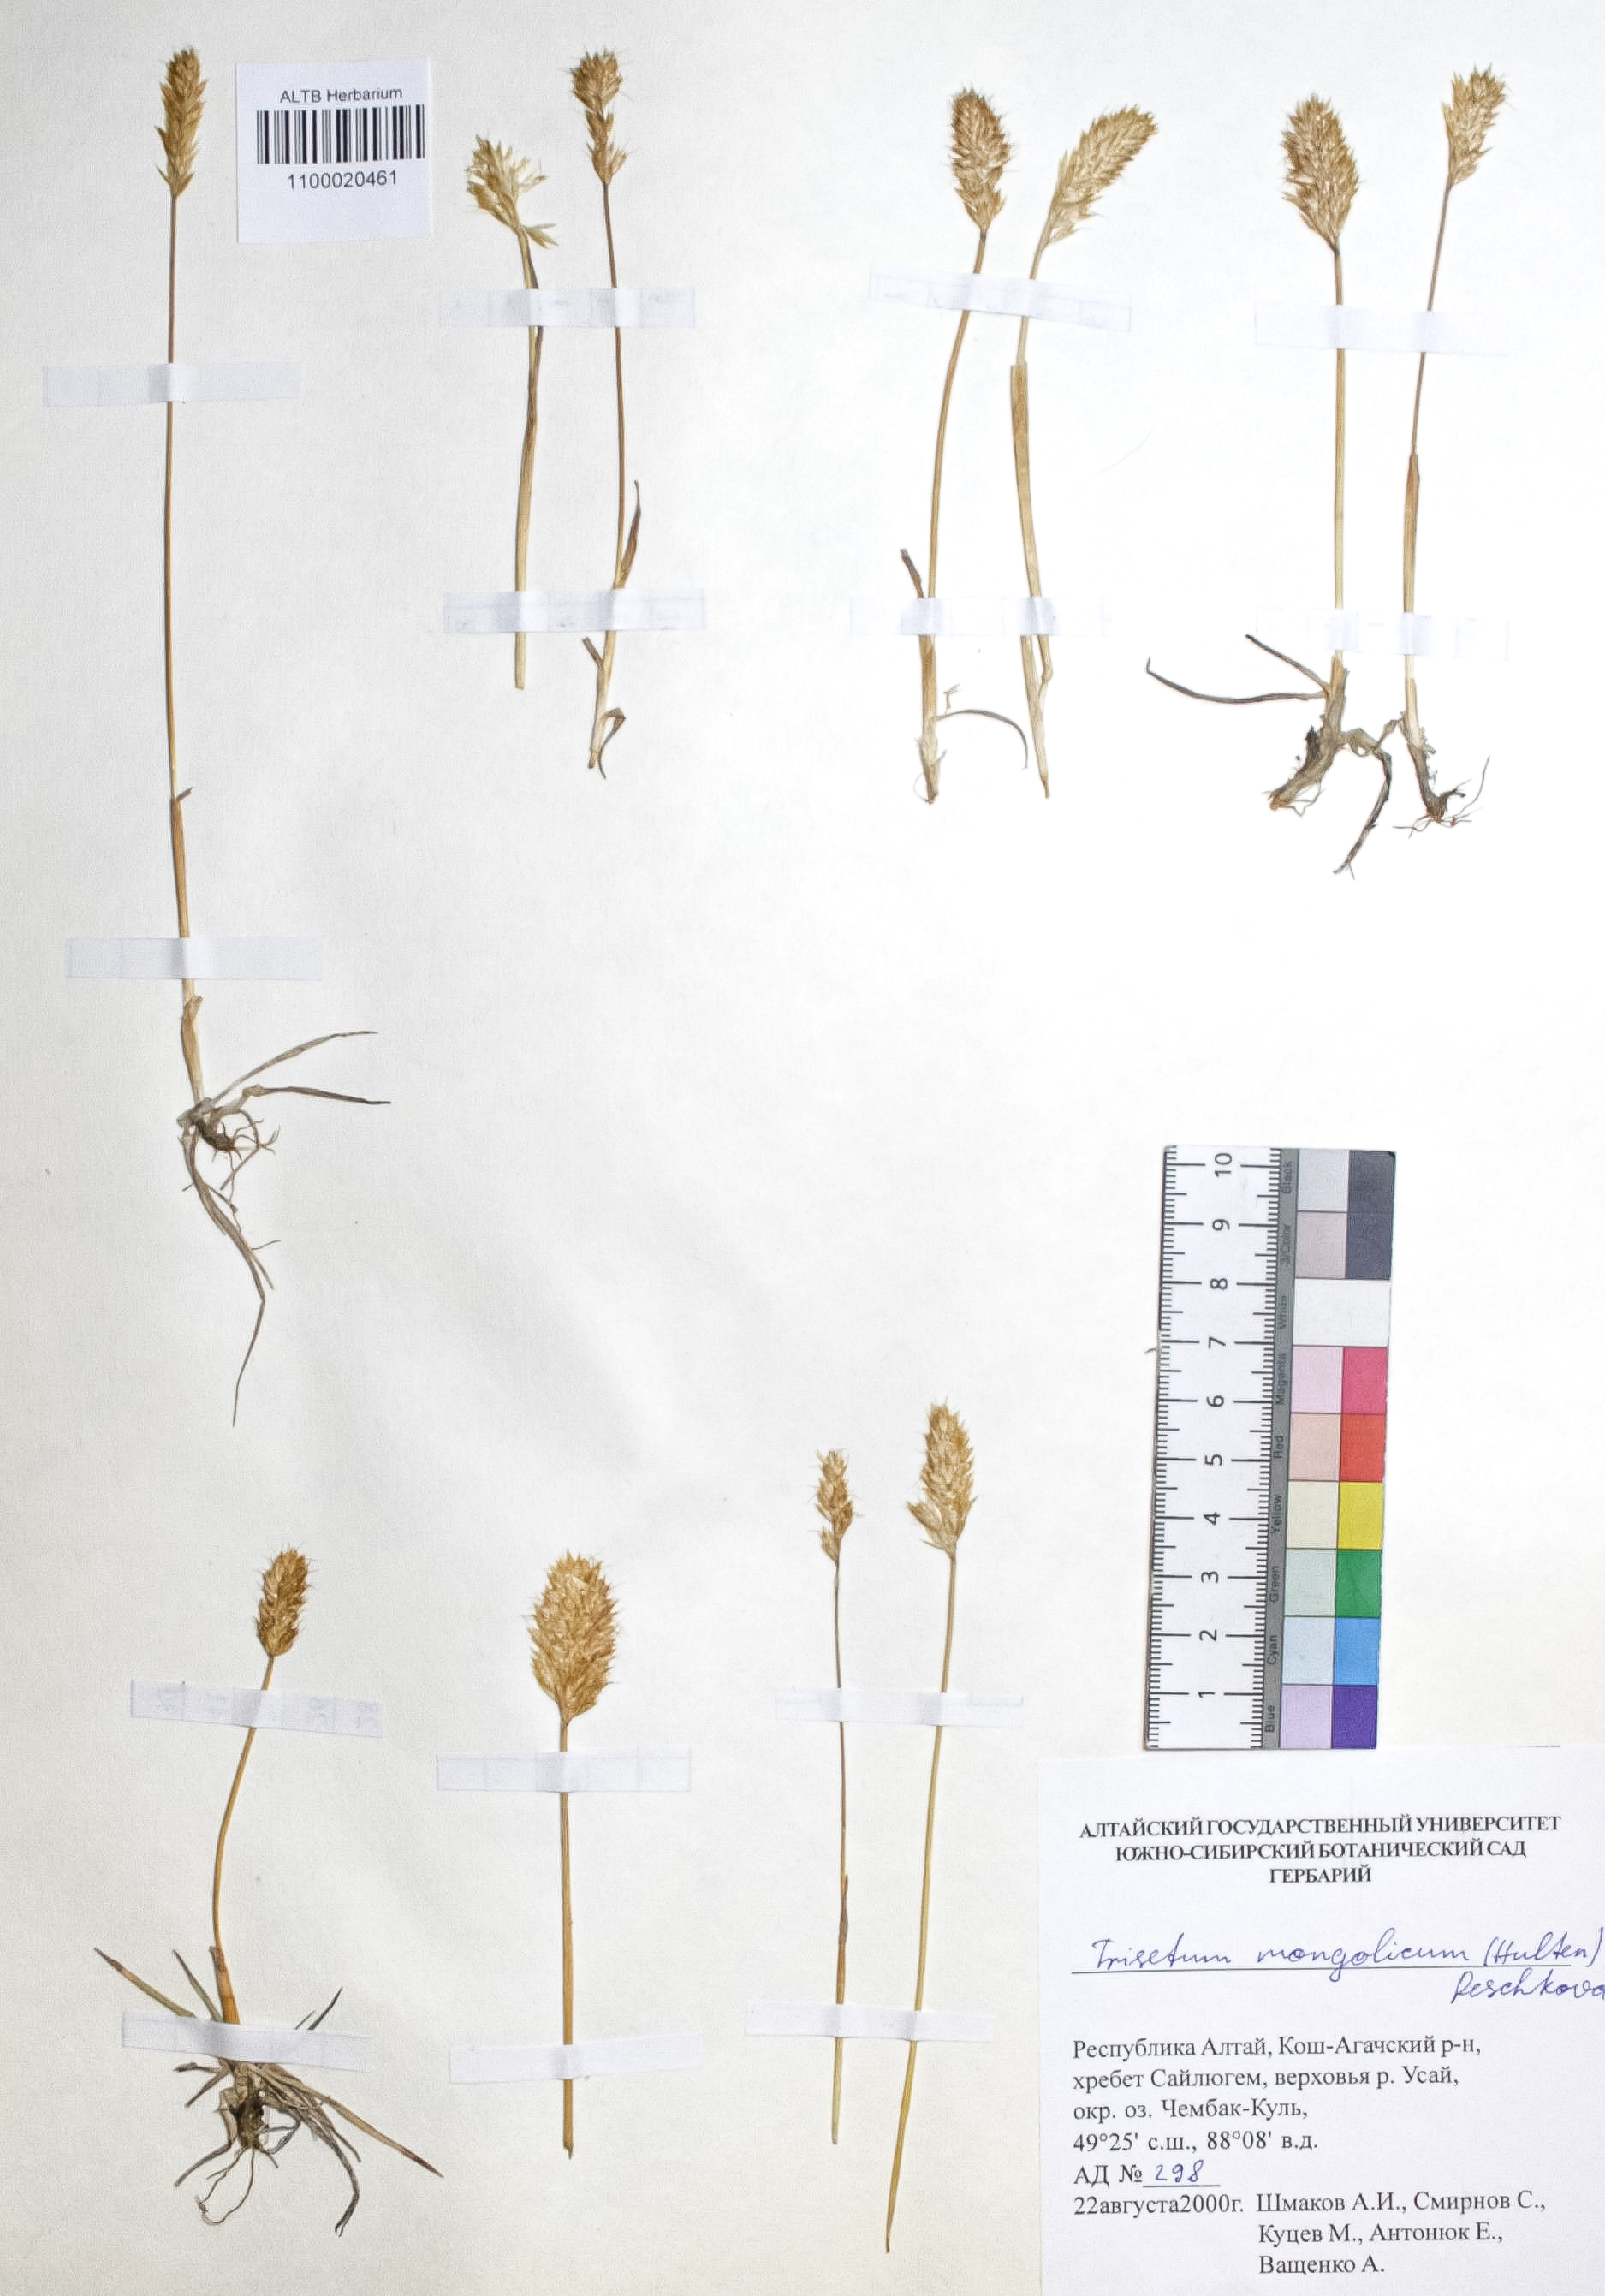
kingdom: Plantae
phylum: Tracheophyta
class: Liliopsida
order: Poales
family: Poaceae
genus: Koeleria
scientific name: Koeleria spicata
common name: Mountain trisetum
